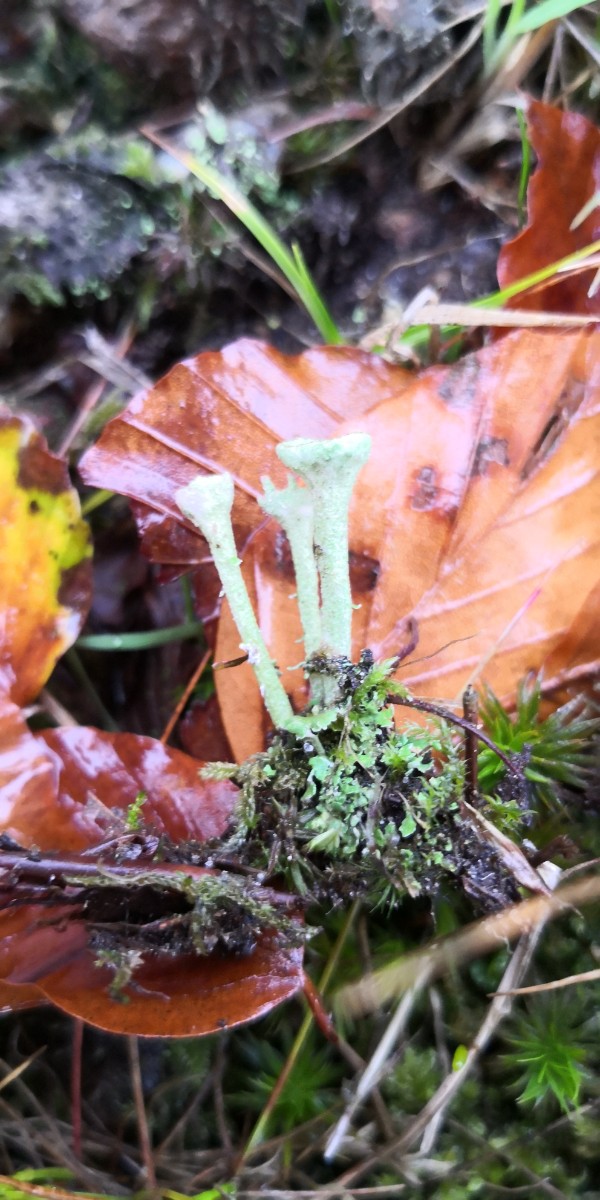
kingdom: Fungi
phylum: Ascomycota
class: Lecanoromycetes
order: Lecanorales
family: Cladoniaceae
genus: Cladonia
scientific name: Cladonia fimbriata
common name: bleggrøn bægerlav
